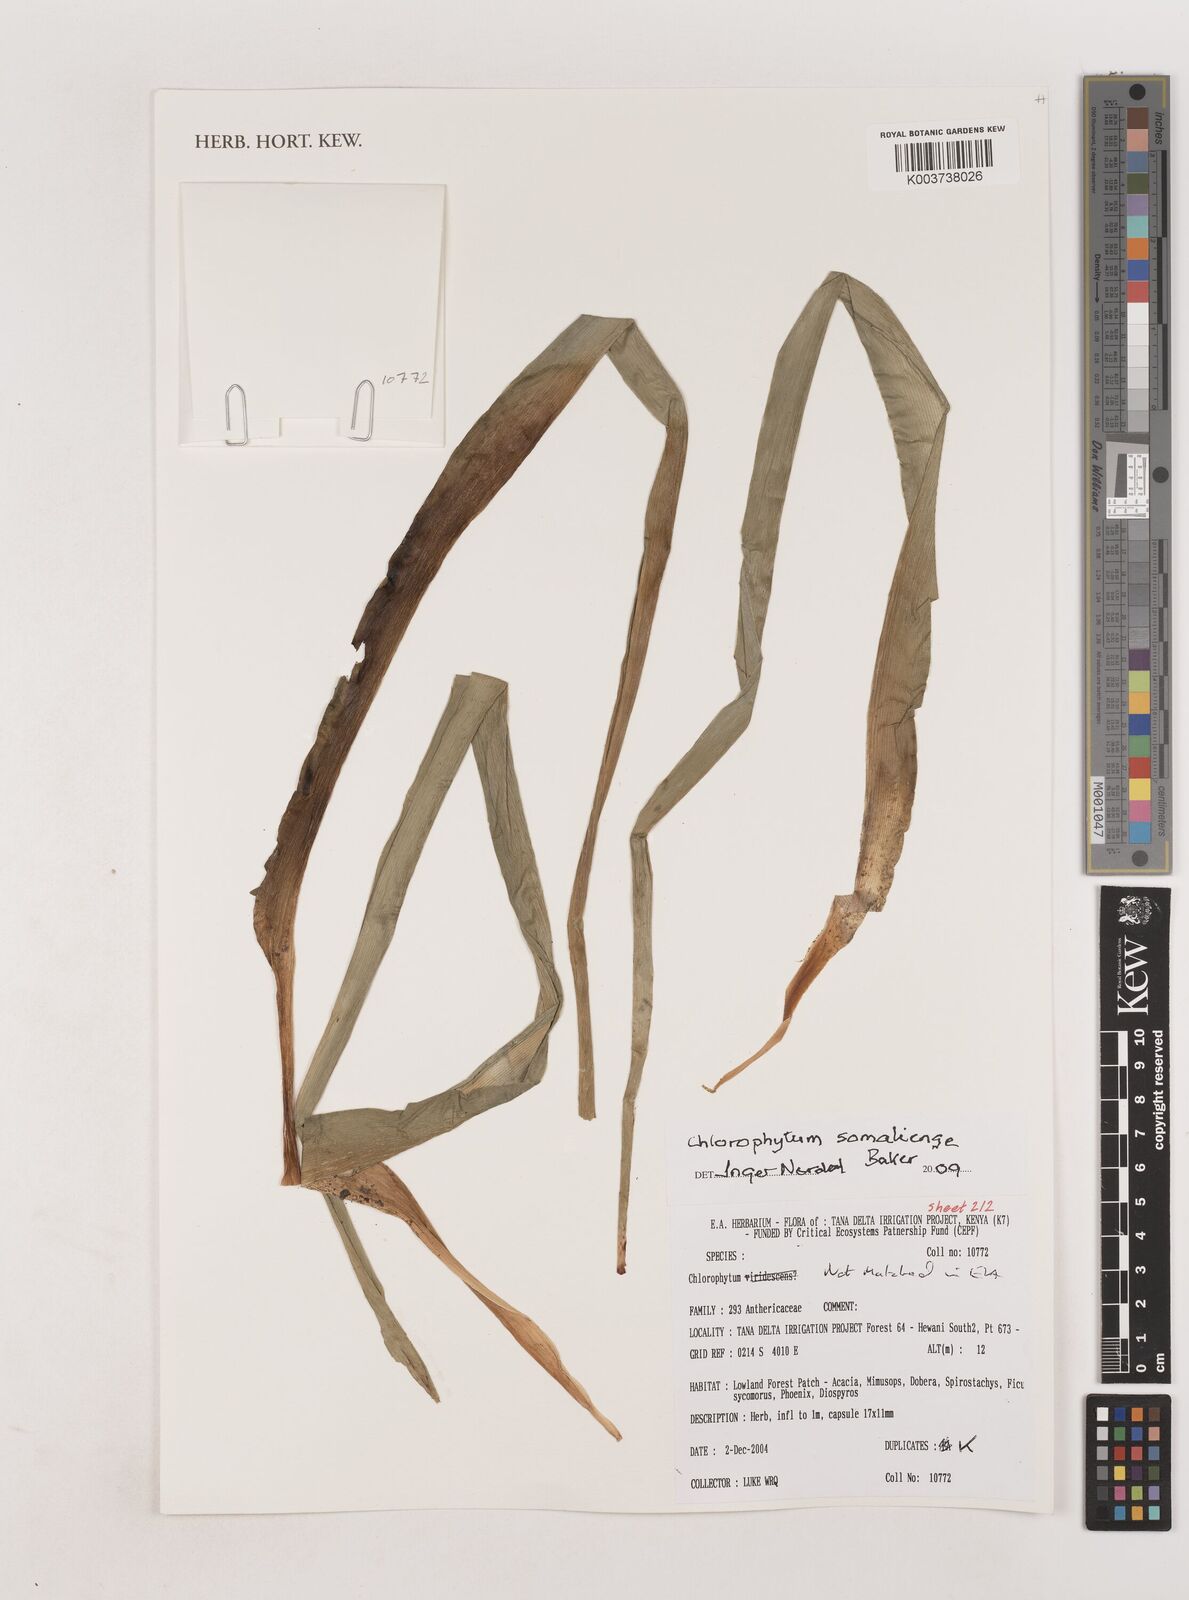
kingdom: Plantae
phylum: Tracheophyta
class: Liliopsida
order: Asparagales
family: Asparagaceae
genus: Chlorophytum
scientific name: Chlorophytum somaliense
